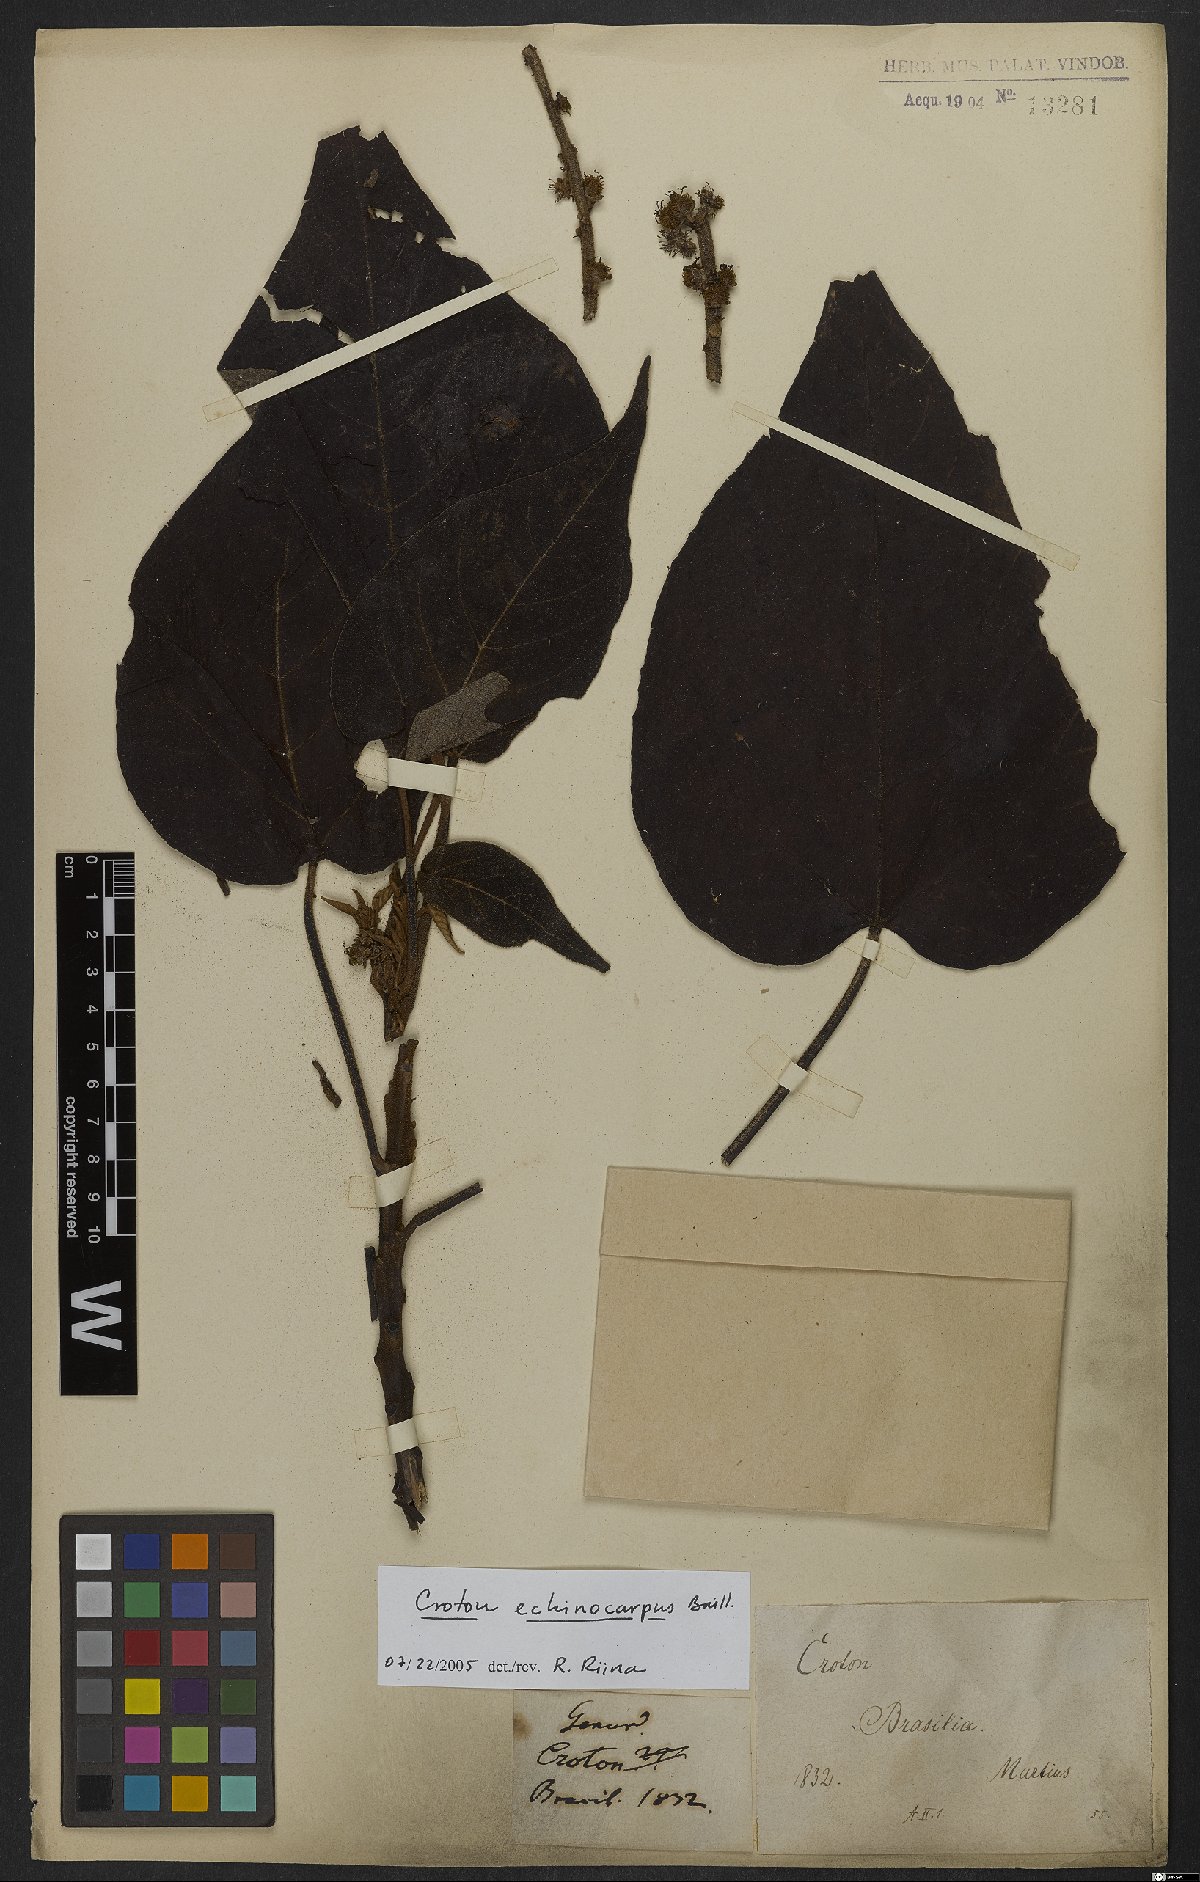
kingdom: Plantae
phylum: Tracheophyta
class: Magnoliopsida
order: Malpighiales
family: Euphorbiaceae
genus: Croton
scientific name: Croton verrucosus
